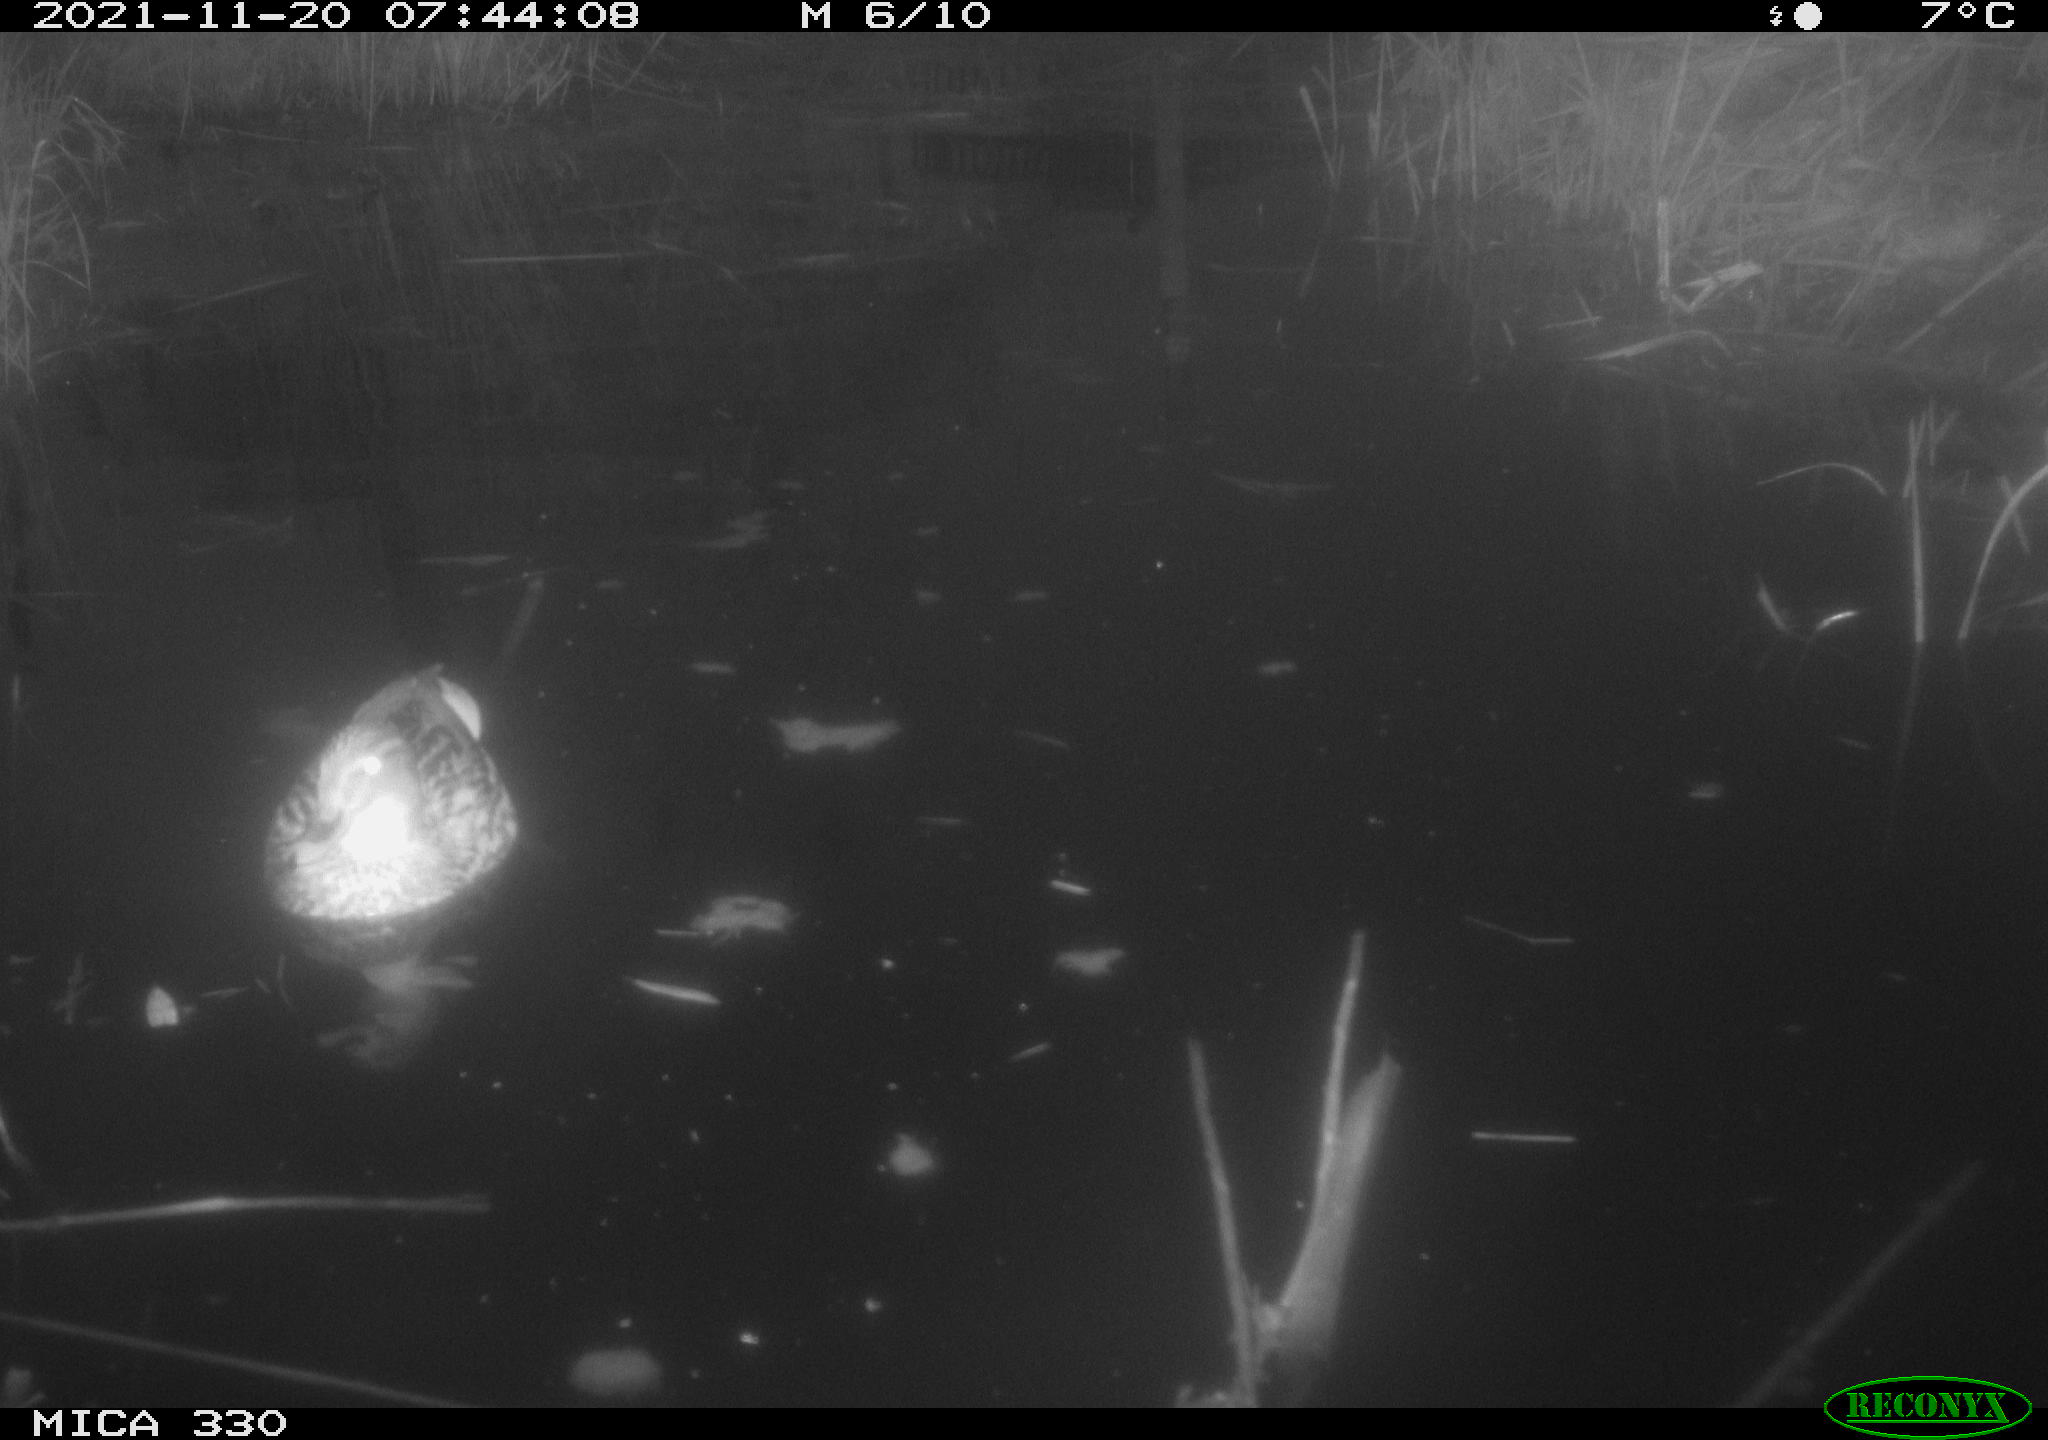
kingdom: Animalia
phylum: Chordata
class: Aves
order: Anseriformes
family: Anatidae
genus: Anas
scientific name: Anas platyrhynchos
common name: Mallard
